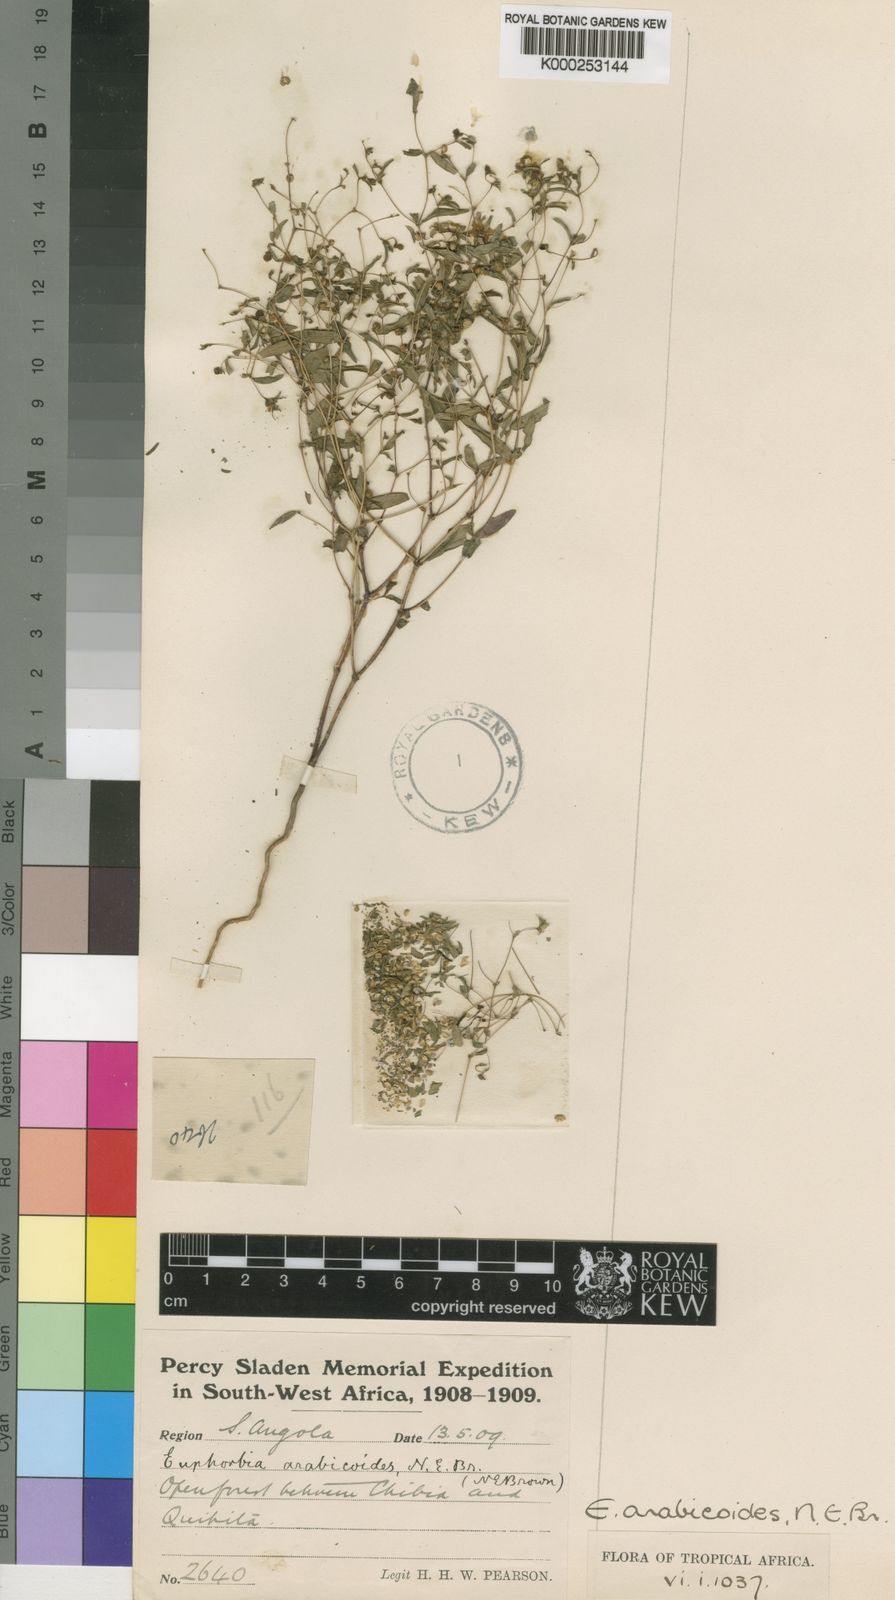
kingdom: Plantae
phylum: Tracheophyta
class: Magnoliopsida
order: Malpighiales
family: Euphorbiaceae
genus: Euphorbia
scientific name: Euphorbia arabicoides
